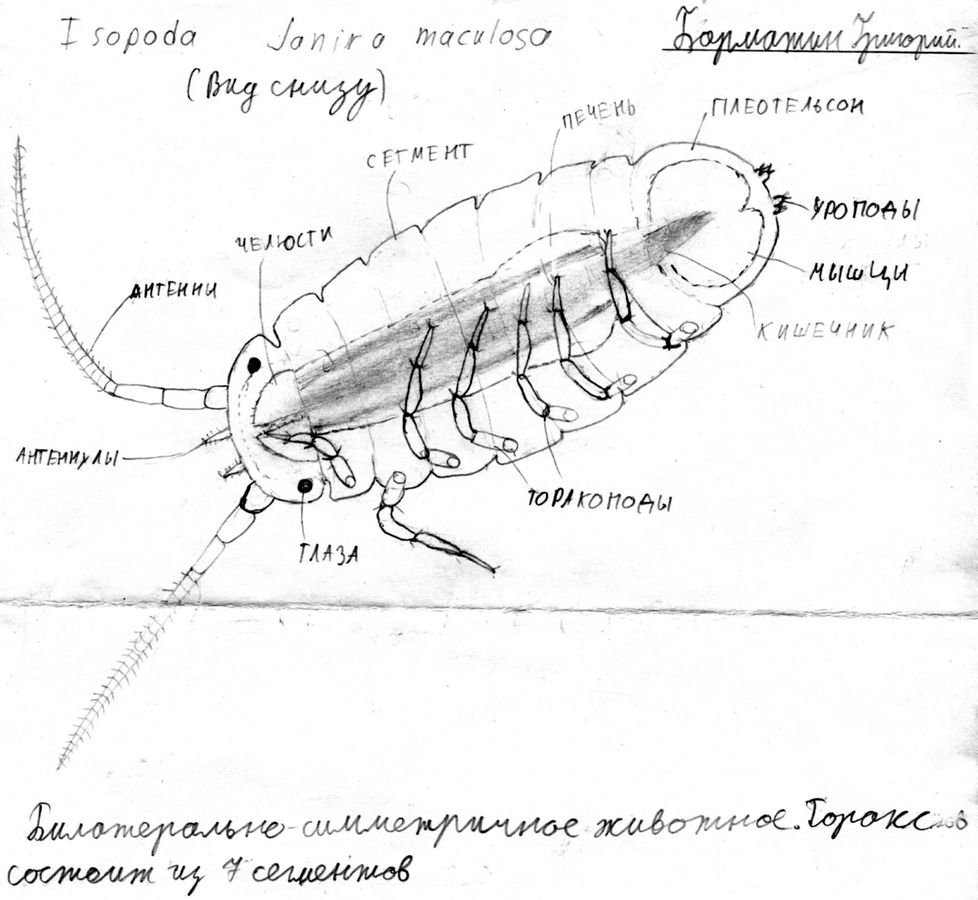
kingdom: Animalia
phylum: Arthropoda
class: Malacostraca
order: Isopoda
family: Janiridae
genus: Janira
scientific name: Janira maculosa
